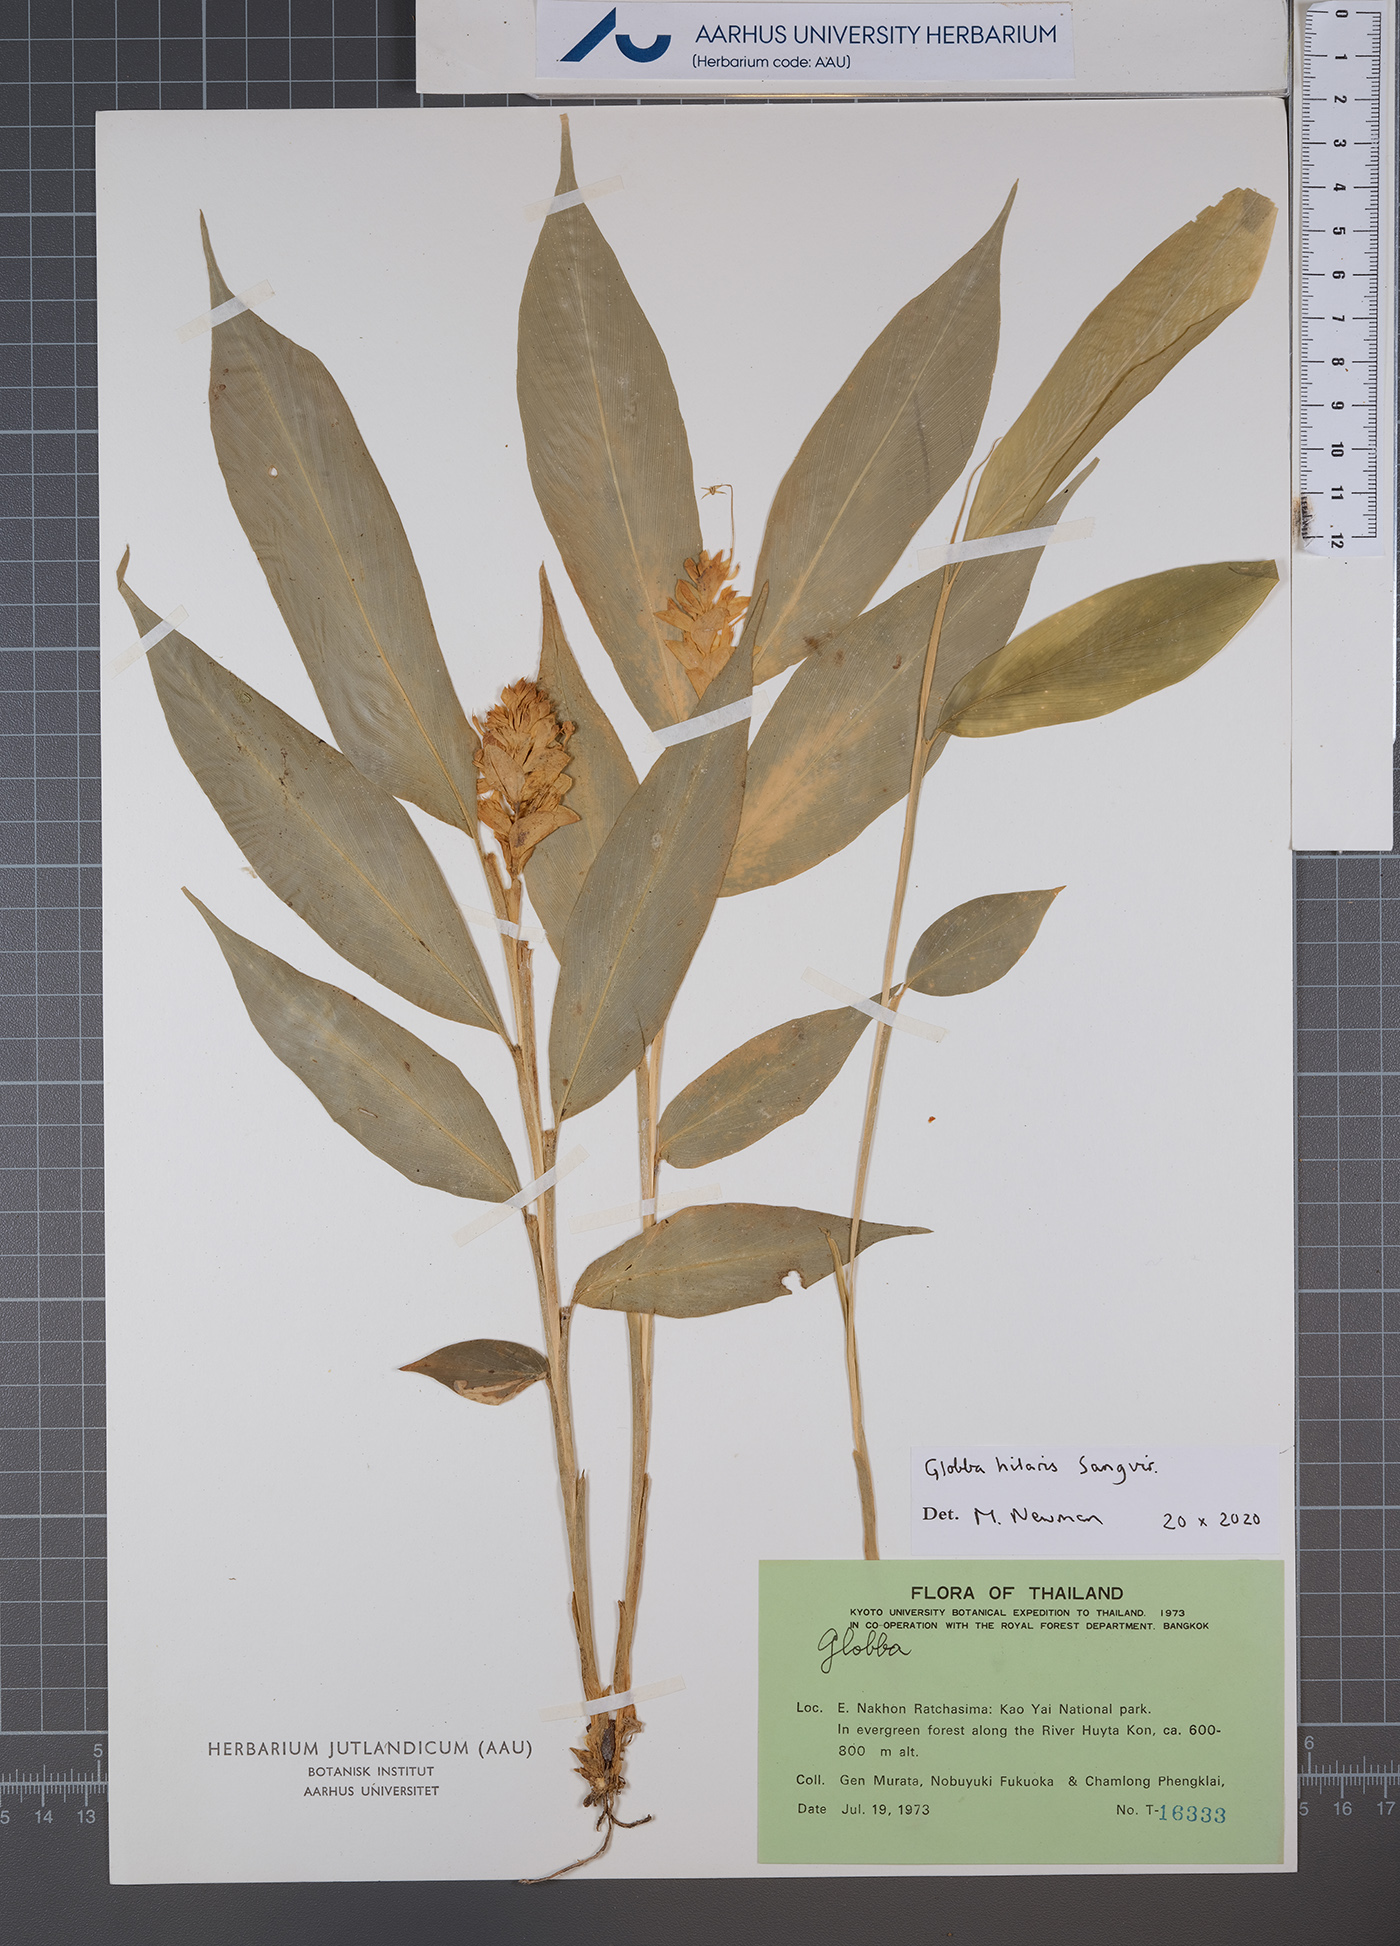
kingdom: Plantae
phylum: Tracheophyta
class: Liliopsida
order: Zingiberales
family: Zingiberaceae
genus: Globba
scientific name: Globba hilaris
